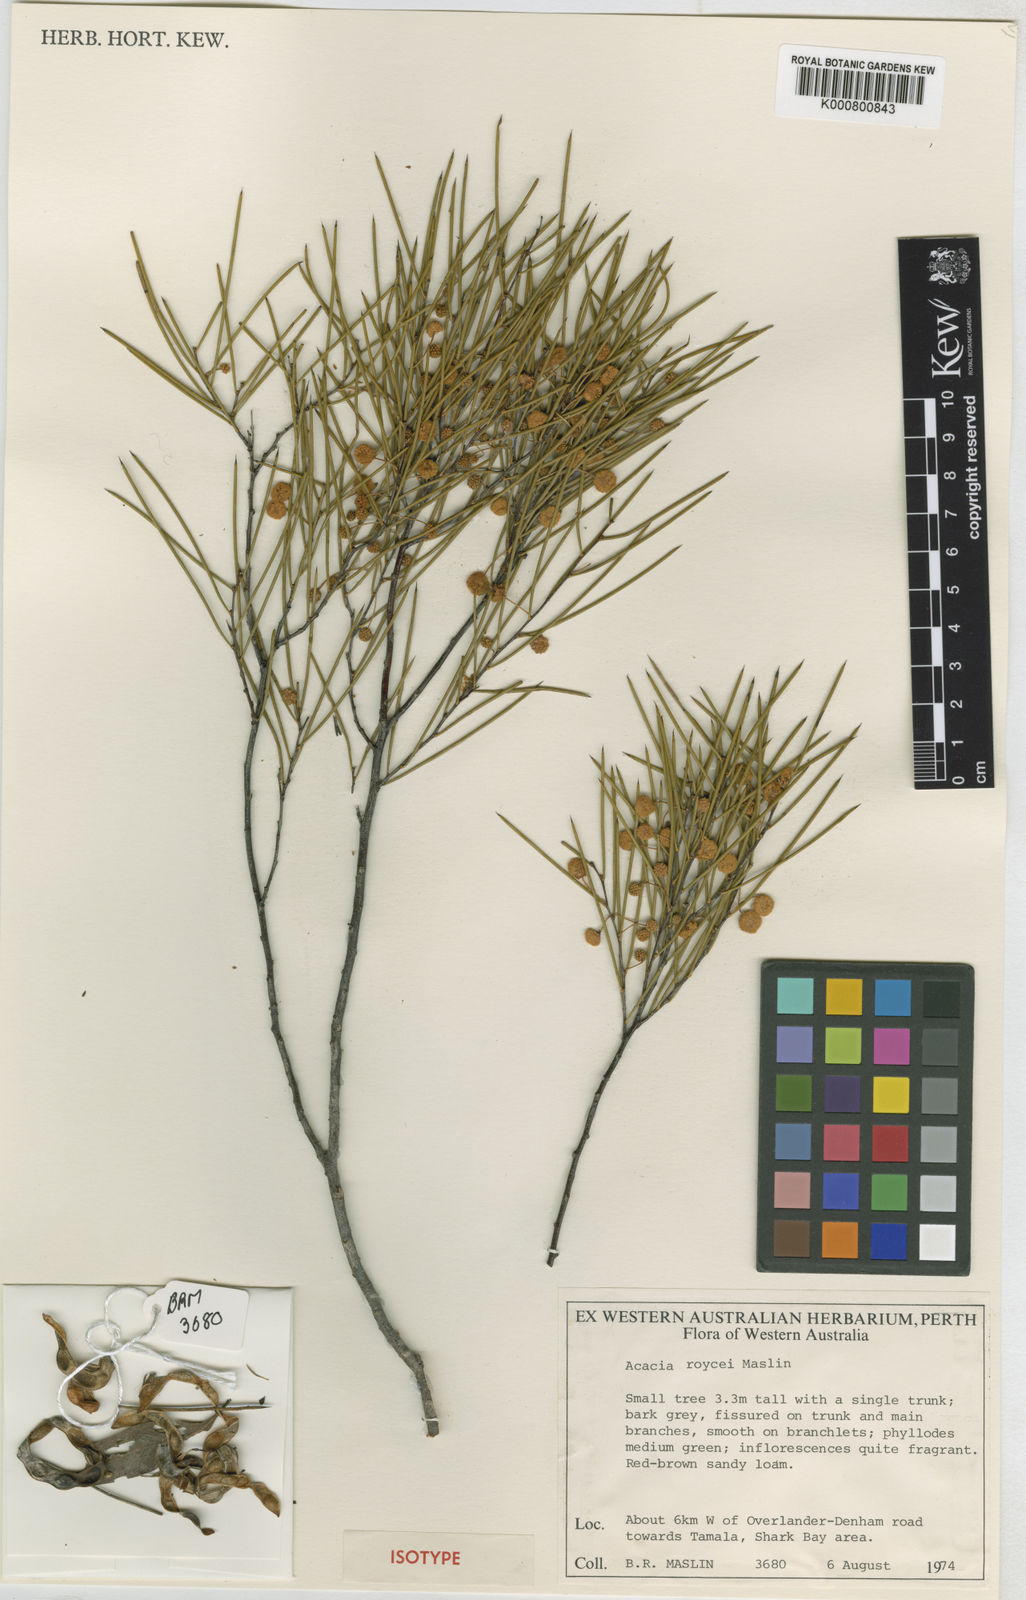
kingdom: Plantae
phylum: Tracheophyta
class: Magnoliopsida
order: Fabales
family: Fabaceae
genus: Acacia
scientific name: Acacia roycei
